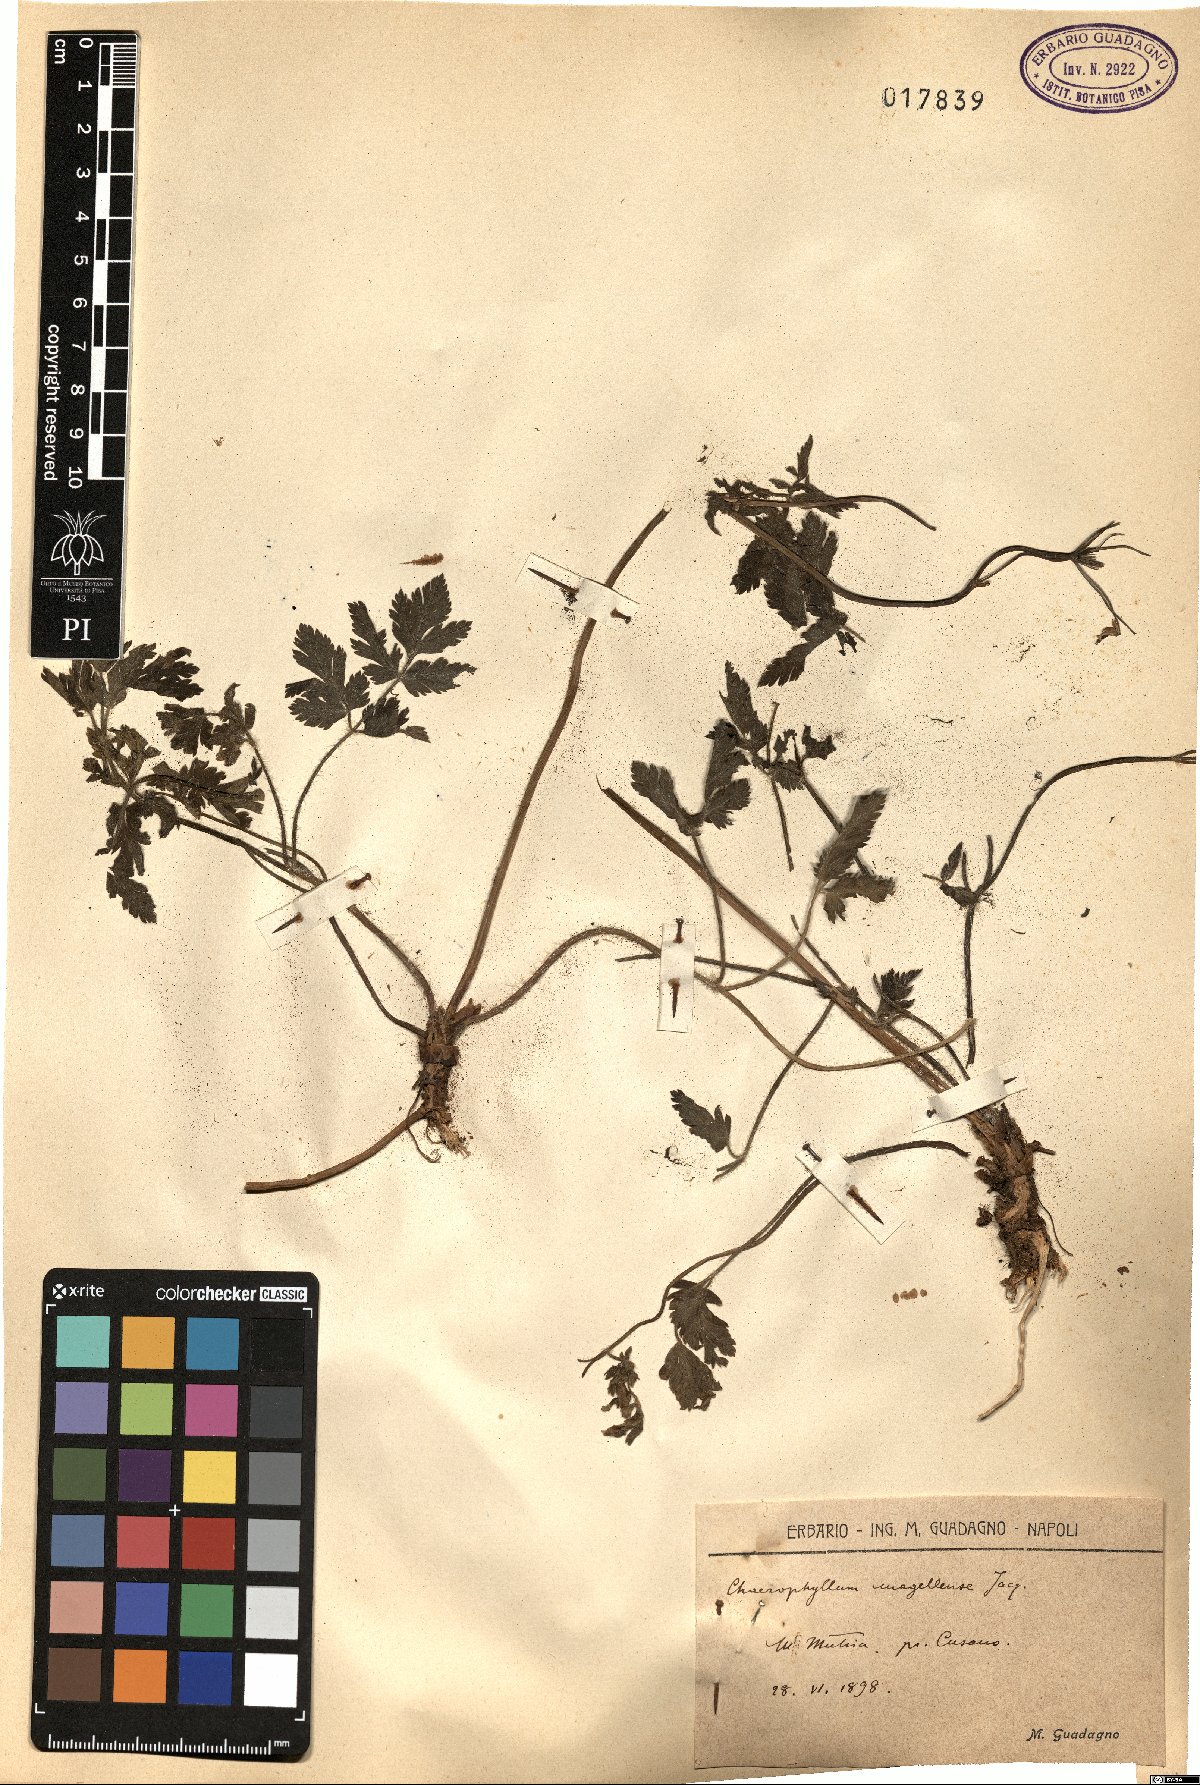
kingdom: Plantae
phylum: Tracheophyta
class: Magnoliopsida
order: Apiales
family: Apiaceae
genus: Chaerophyllum
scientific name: Chaerophyllum hirsutum
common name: Hairy chervil
